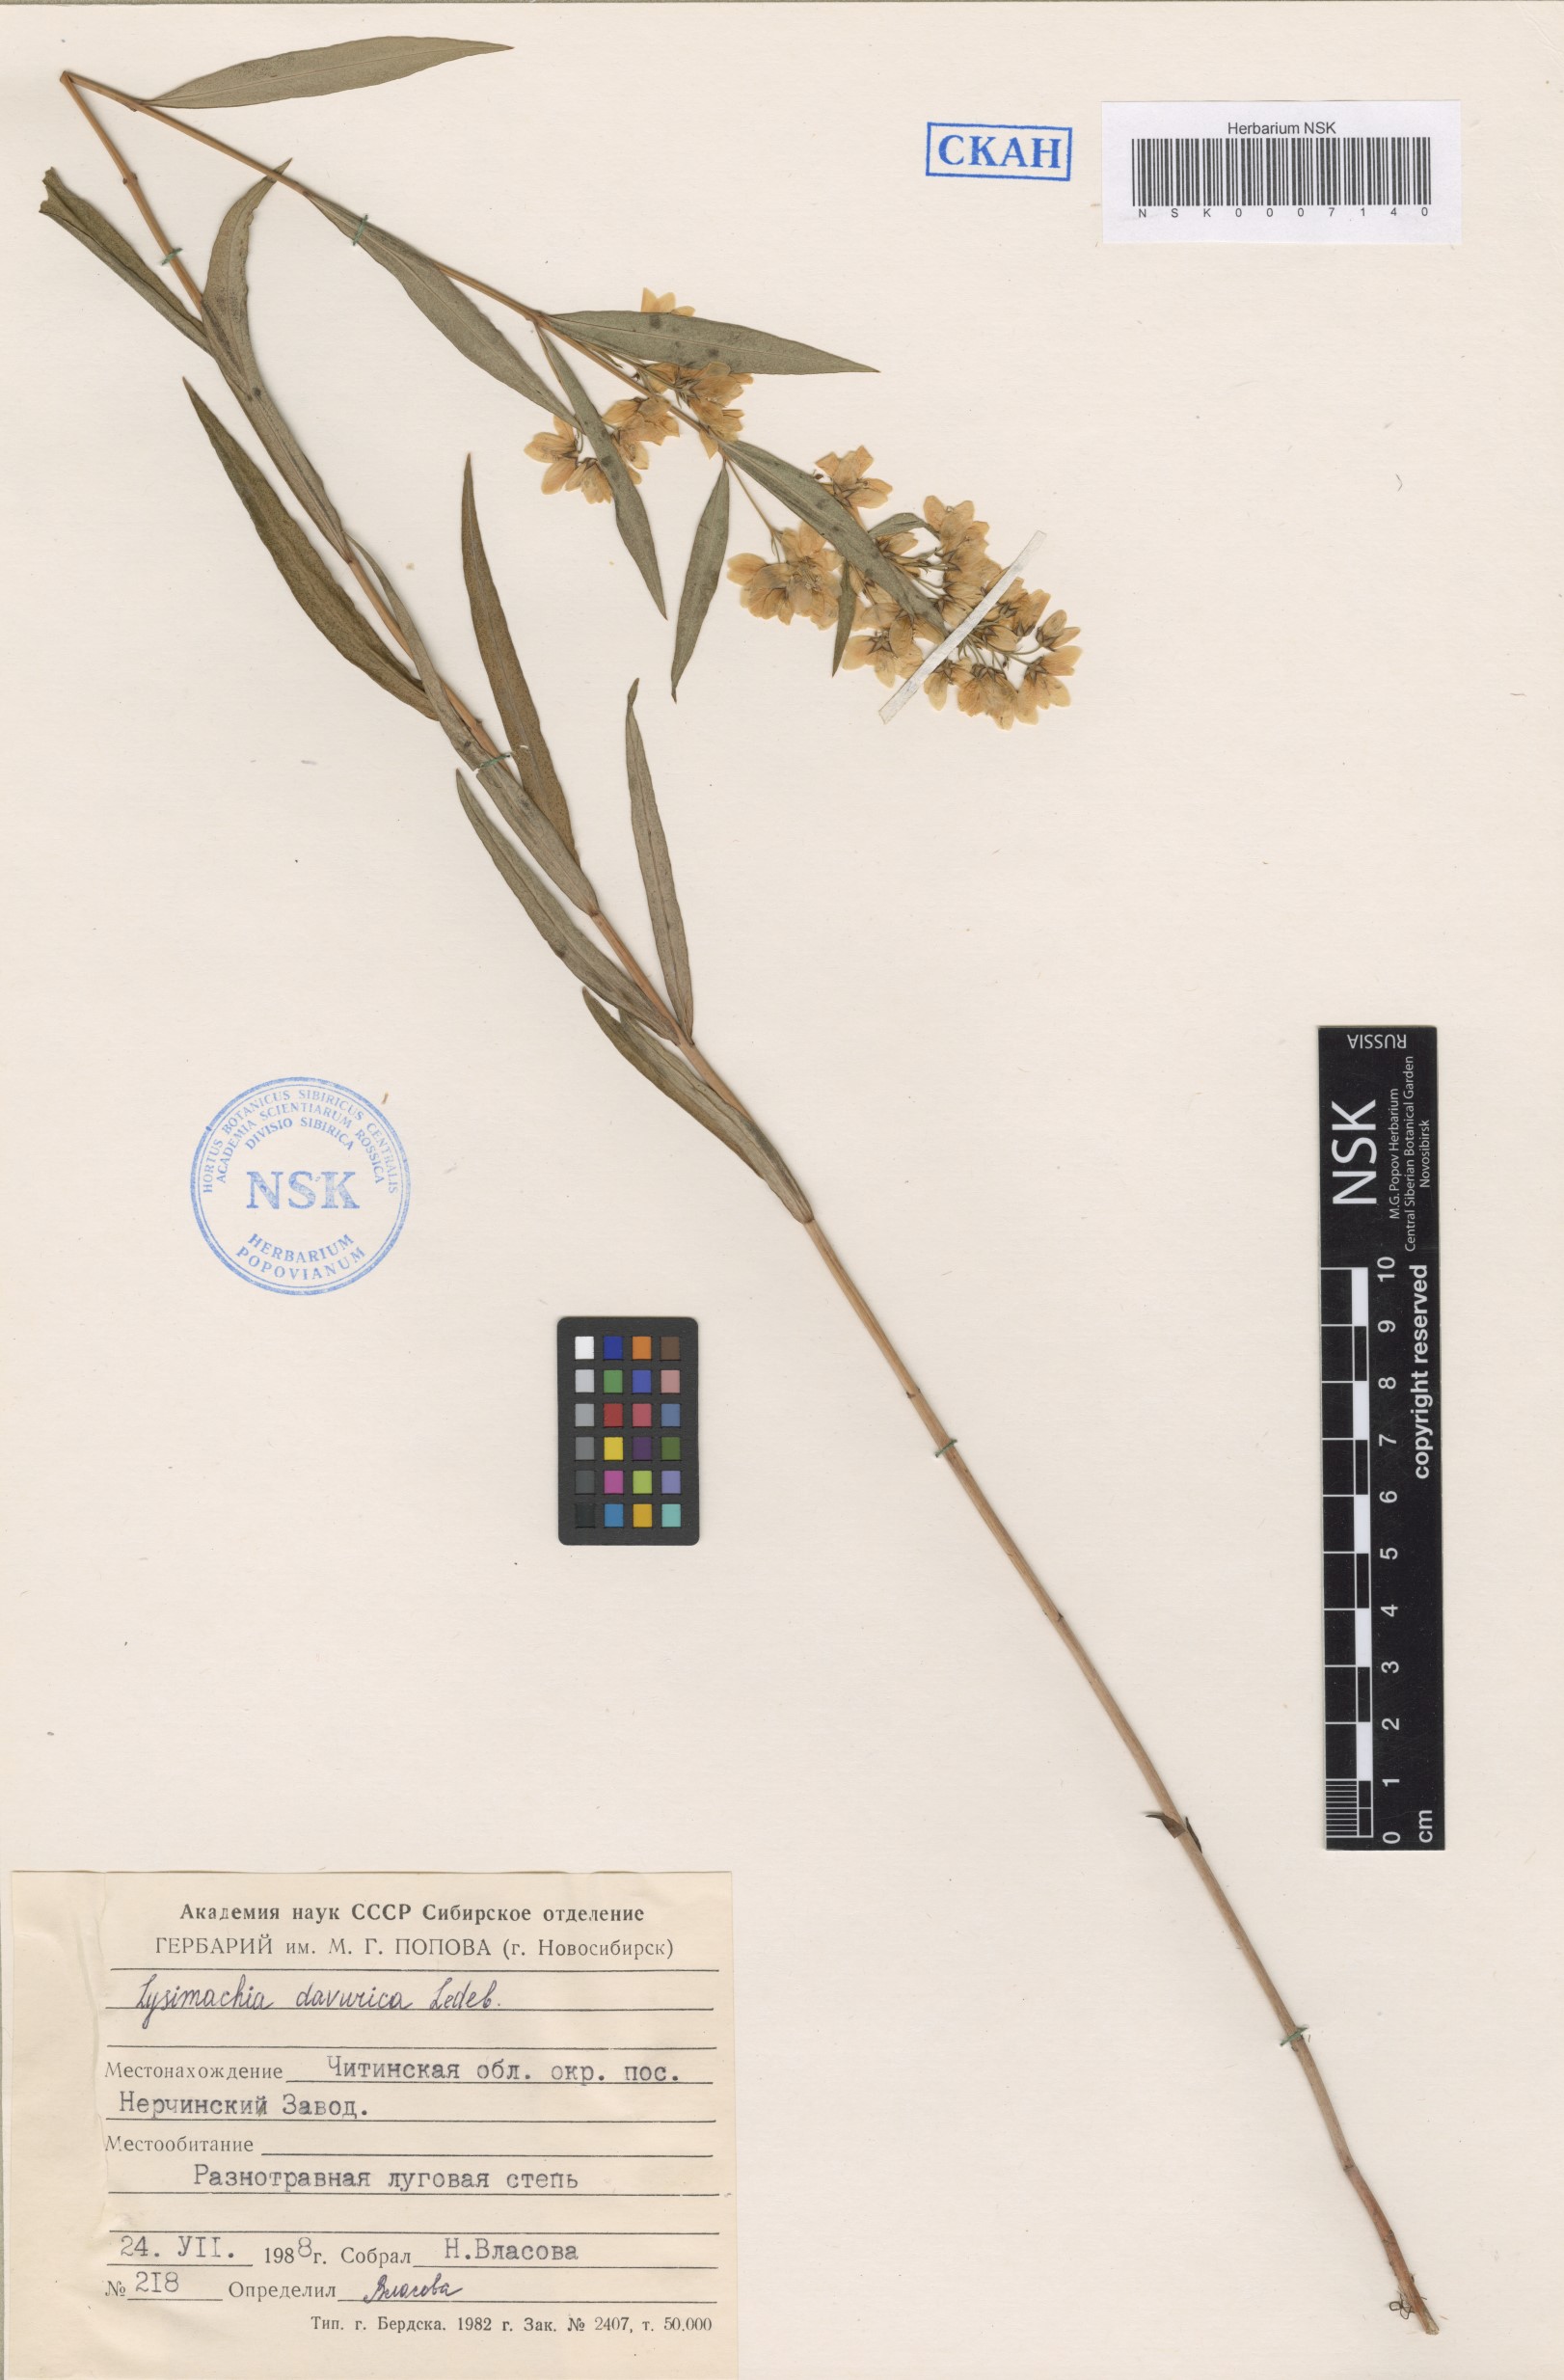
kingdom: Plantae
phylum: Tracheophyta
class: Magnoliopsida
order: Ericales
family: Primulaceae
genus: Lysimachia
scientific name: Lysimachia davurica
